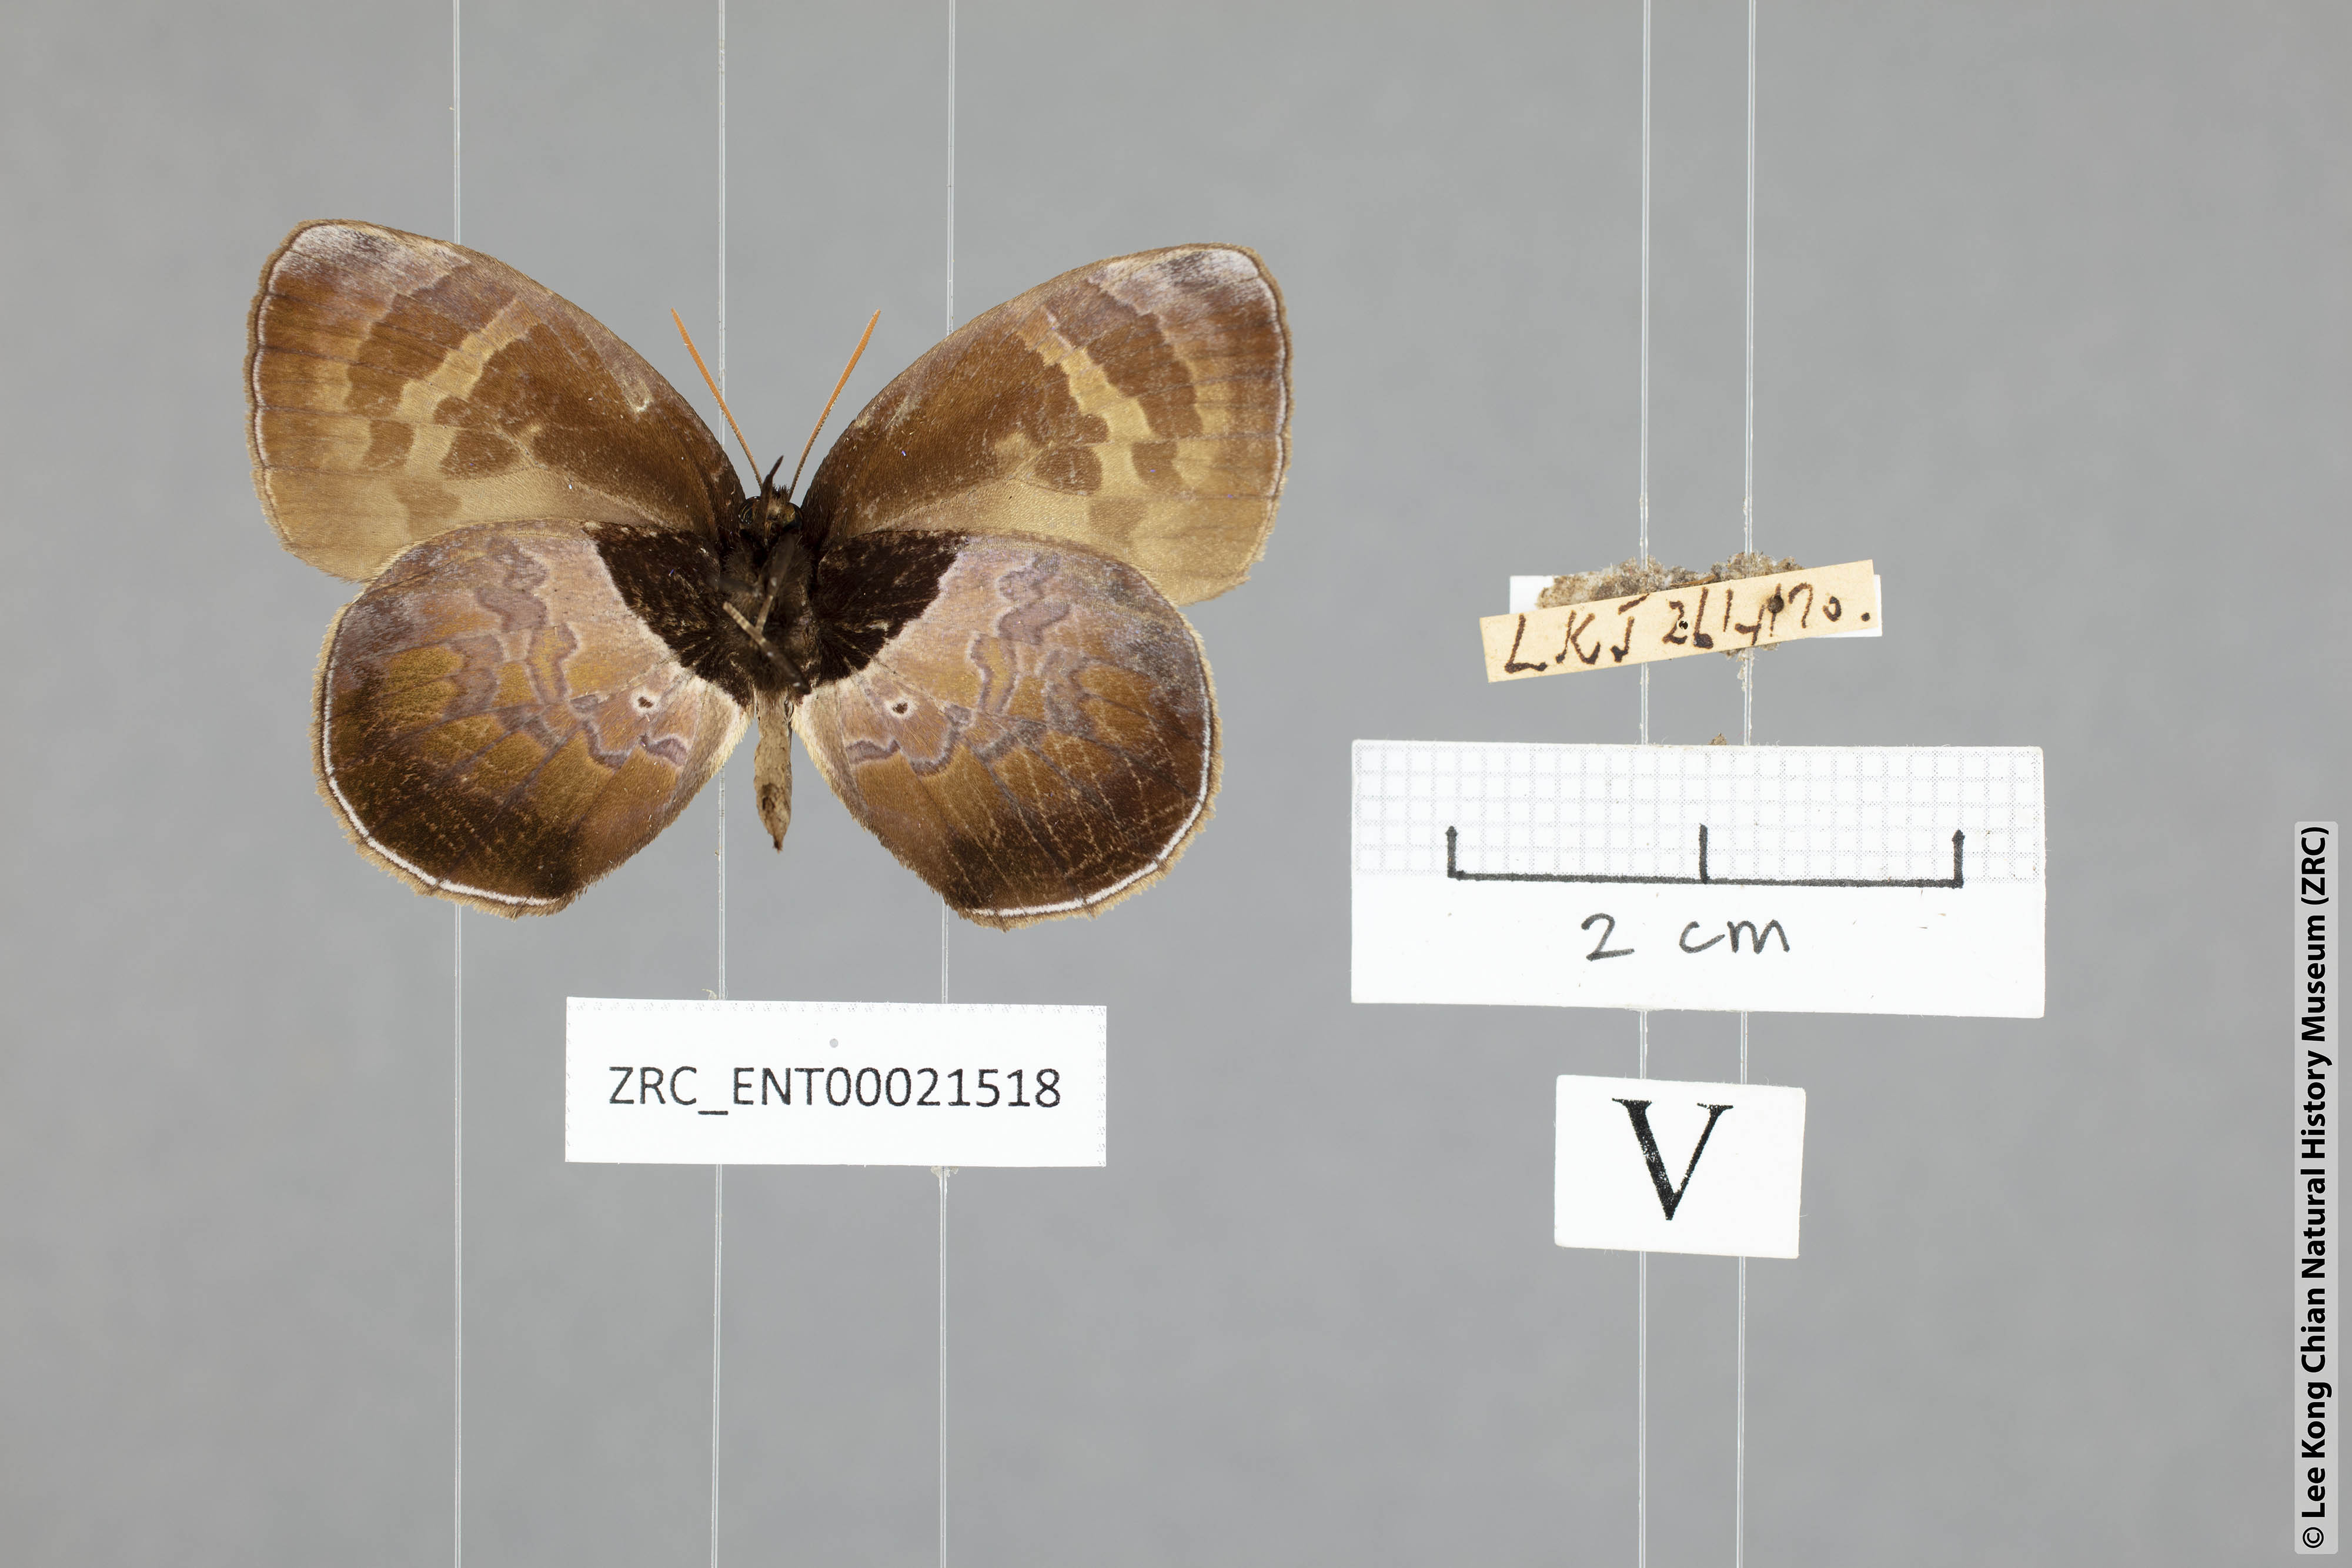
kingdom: Animalia
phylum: Arthropoda
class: Insecta
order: Lepidoptera
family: Lycaenidae
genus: Flos
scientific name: Flos
